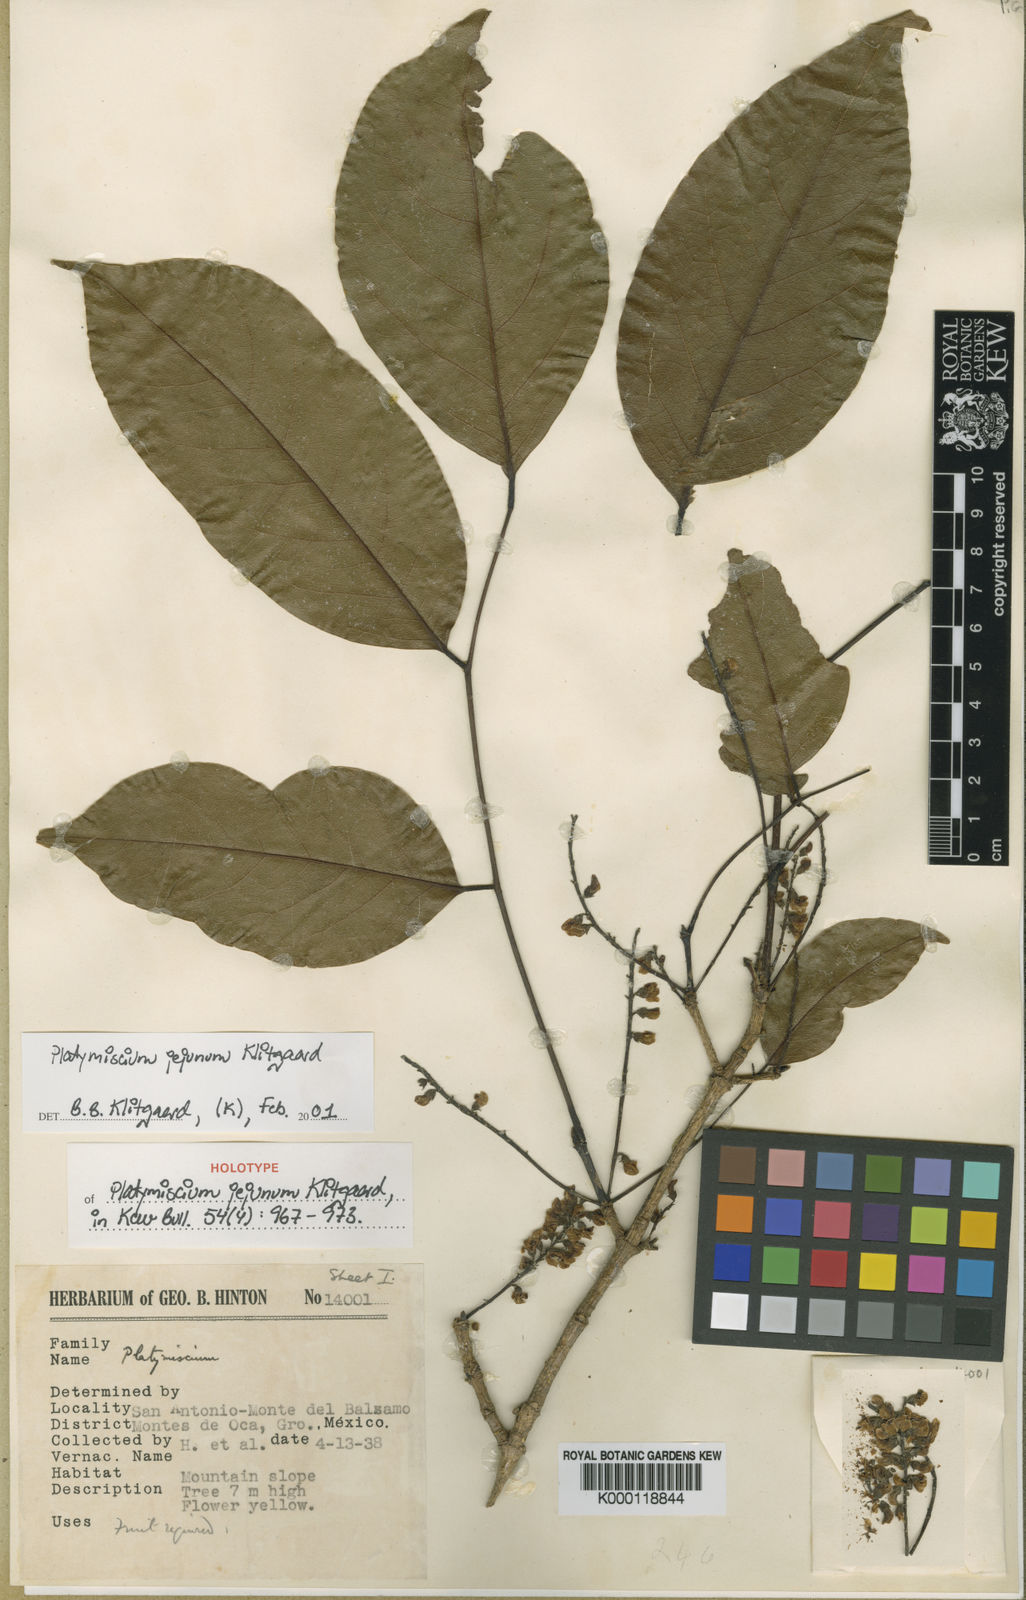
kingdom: Plantae
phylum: Tracheophyta
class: Magnoliopsida
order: Fabales
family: Fabaceae
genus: Platymiscium
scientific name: Platymiscium jejunum
